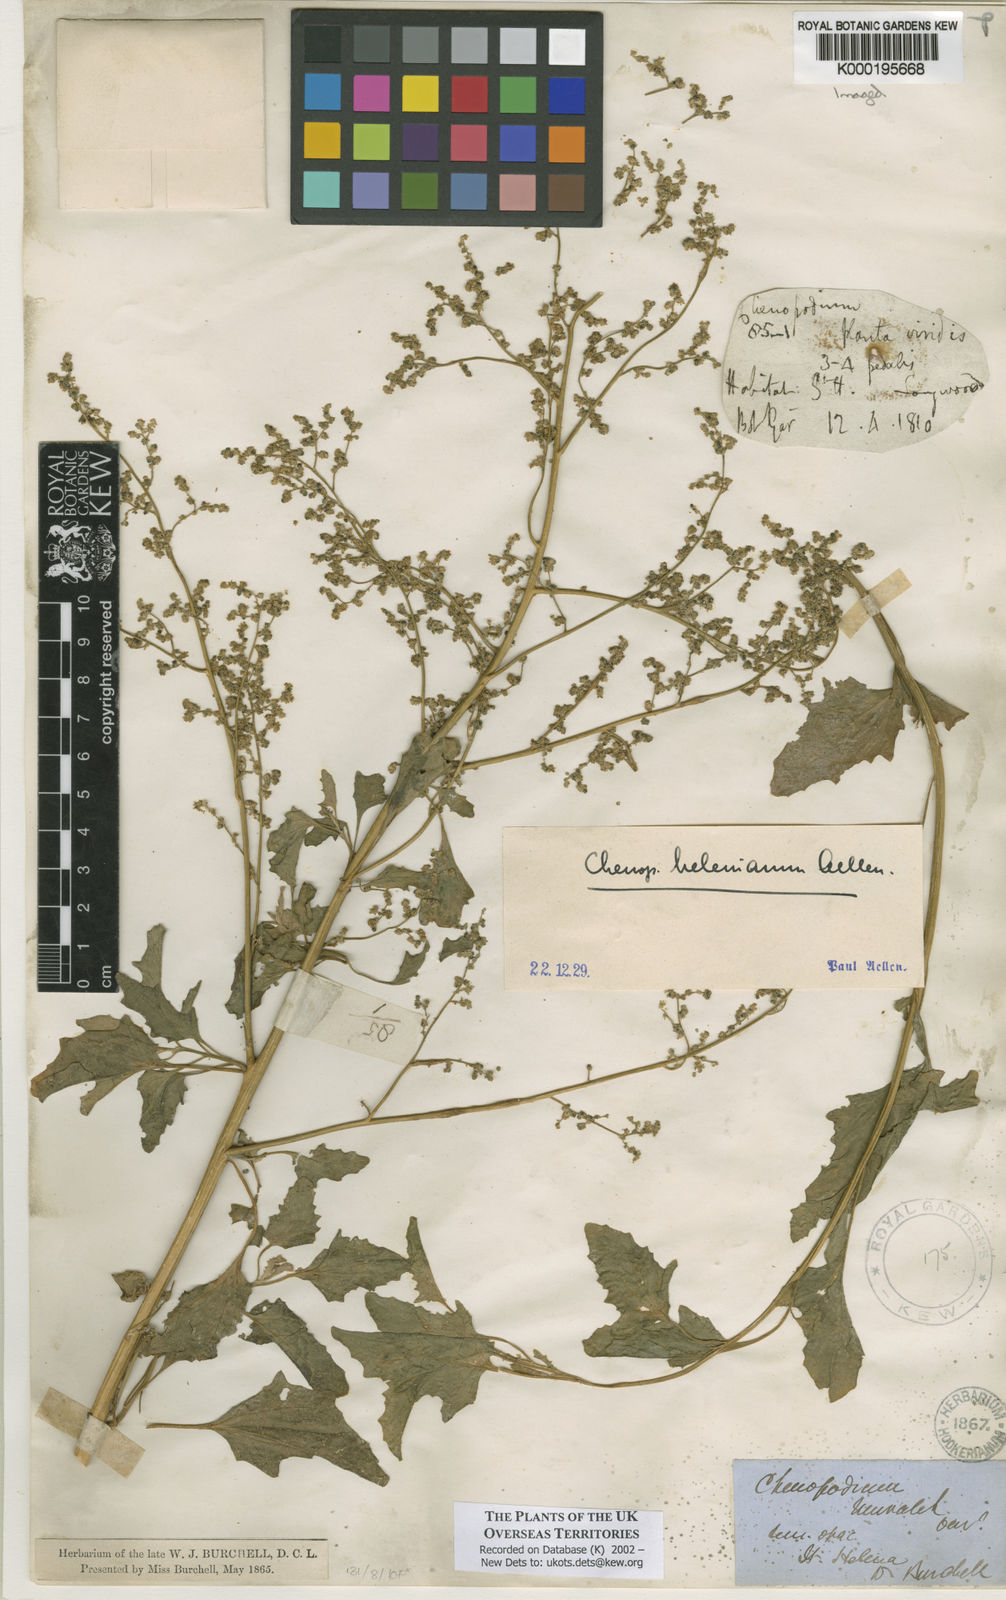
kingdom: Plantae
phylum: Tracheophyta
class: Magnoliopsida
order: Caryophyllales
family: Amaranthaceae
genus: Chenopodium
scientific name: Chenopodium
